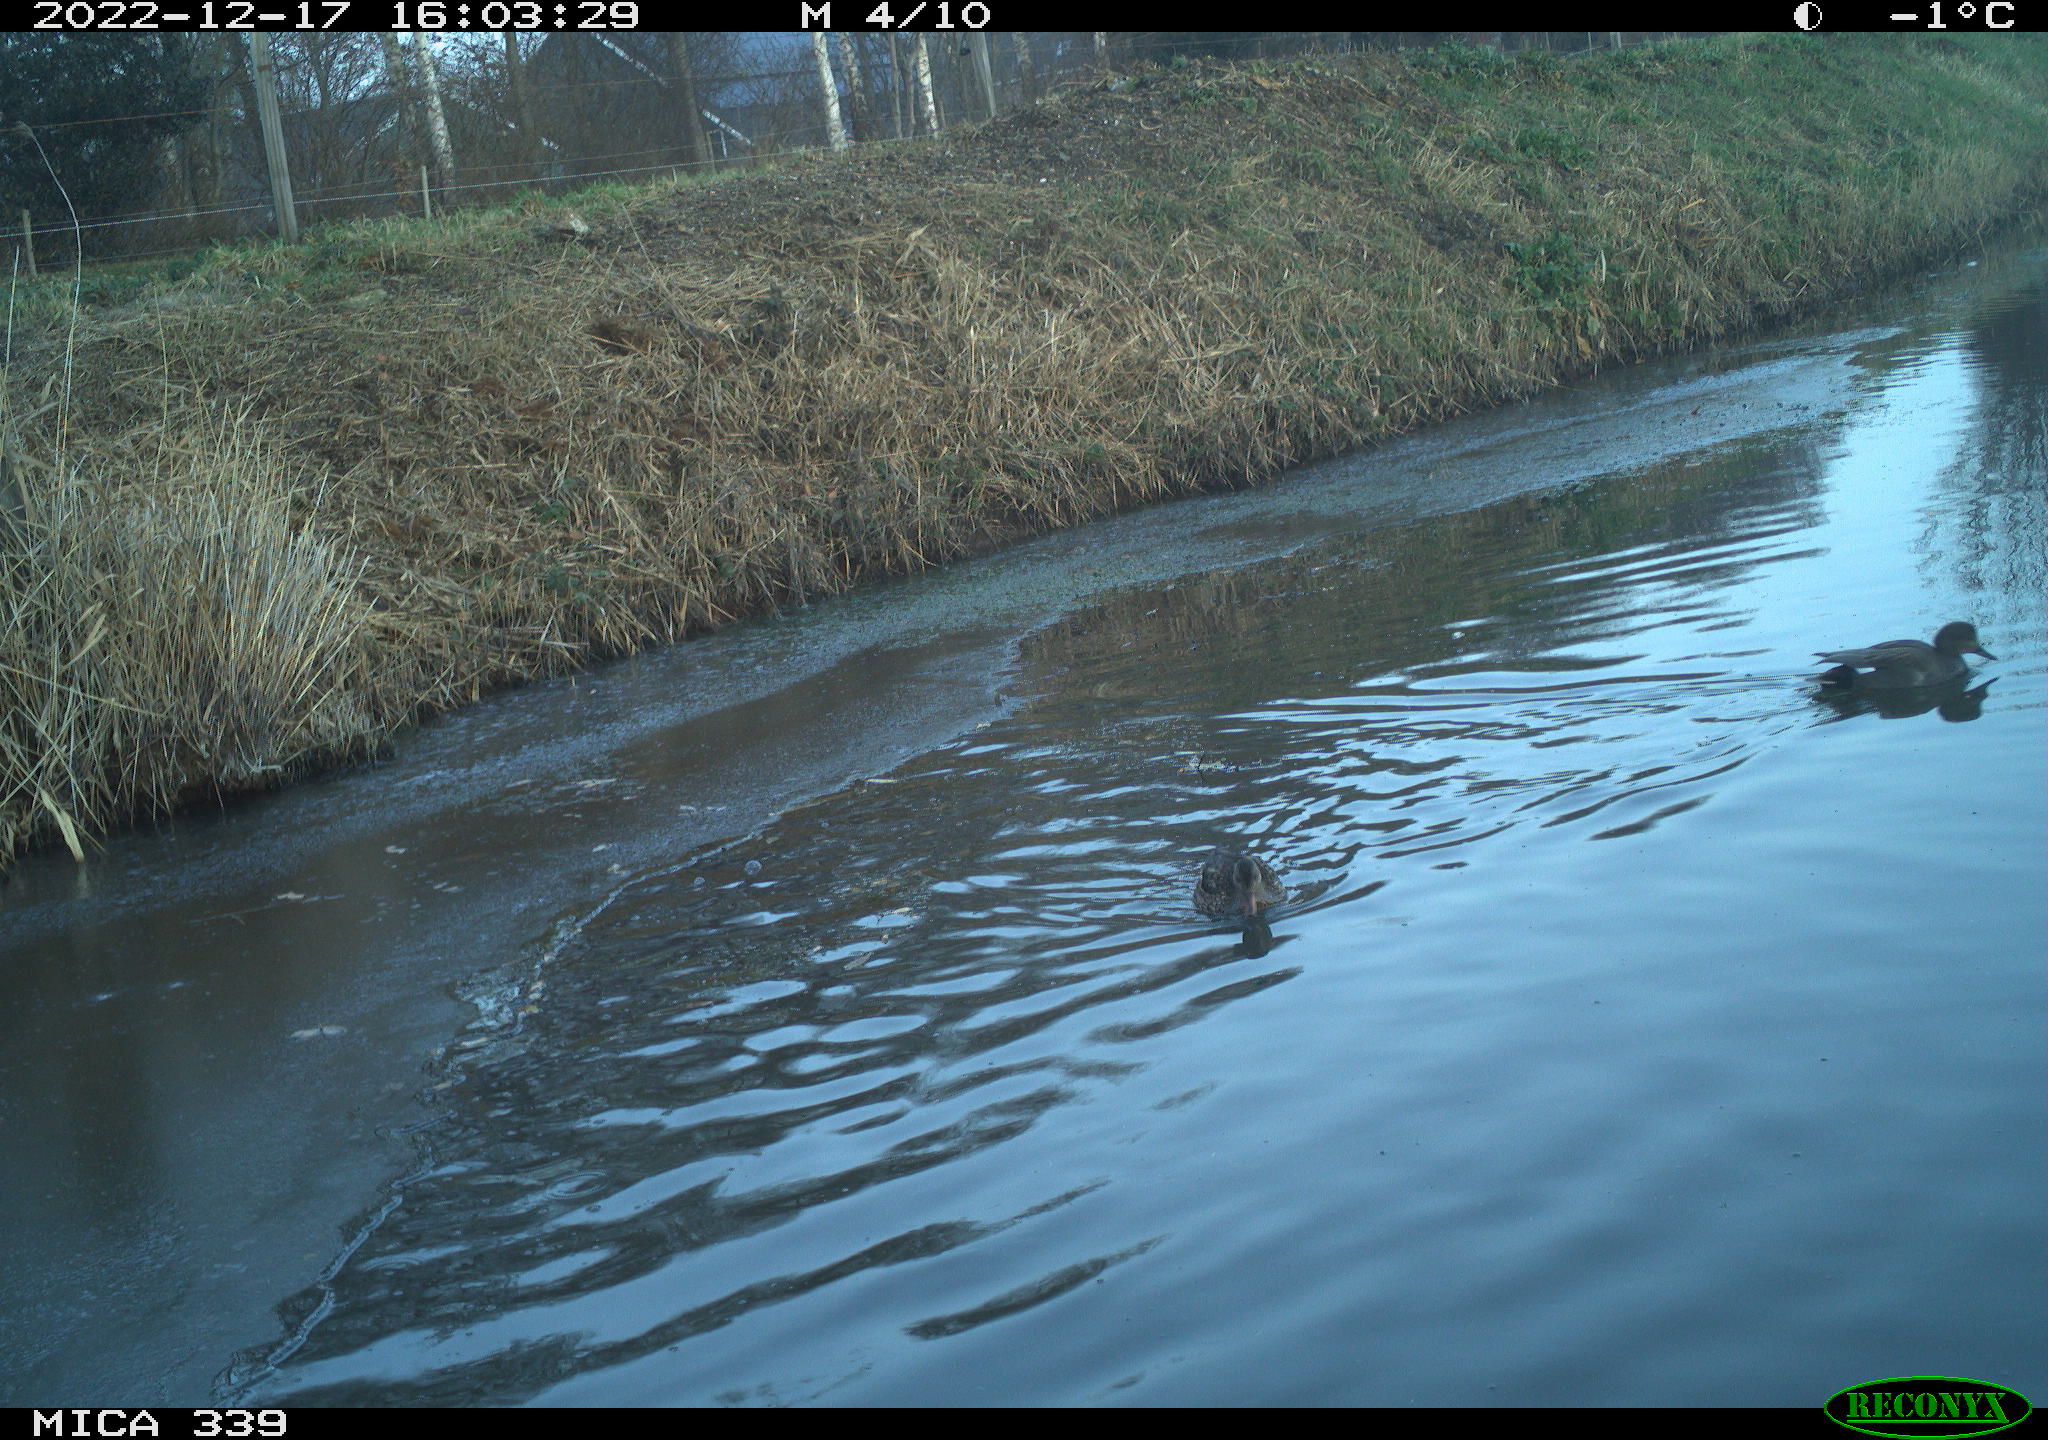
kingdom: Animalia
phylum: Chordata
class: Aves
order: Gruiformes
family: Rallidae
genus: Gallinula
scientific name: Gallinula chloropus
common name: Common moorhen
